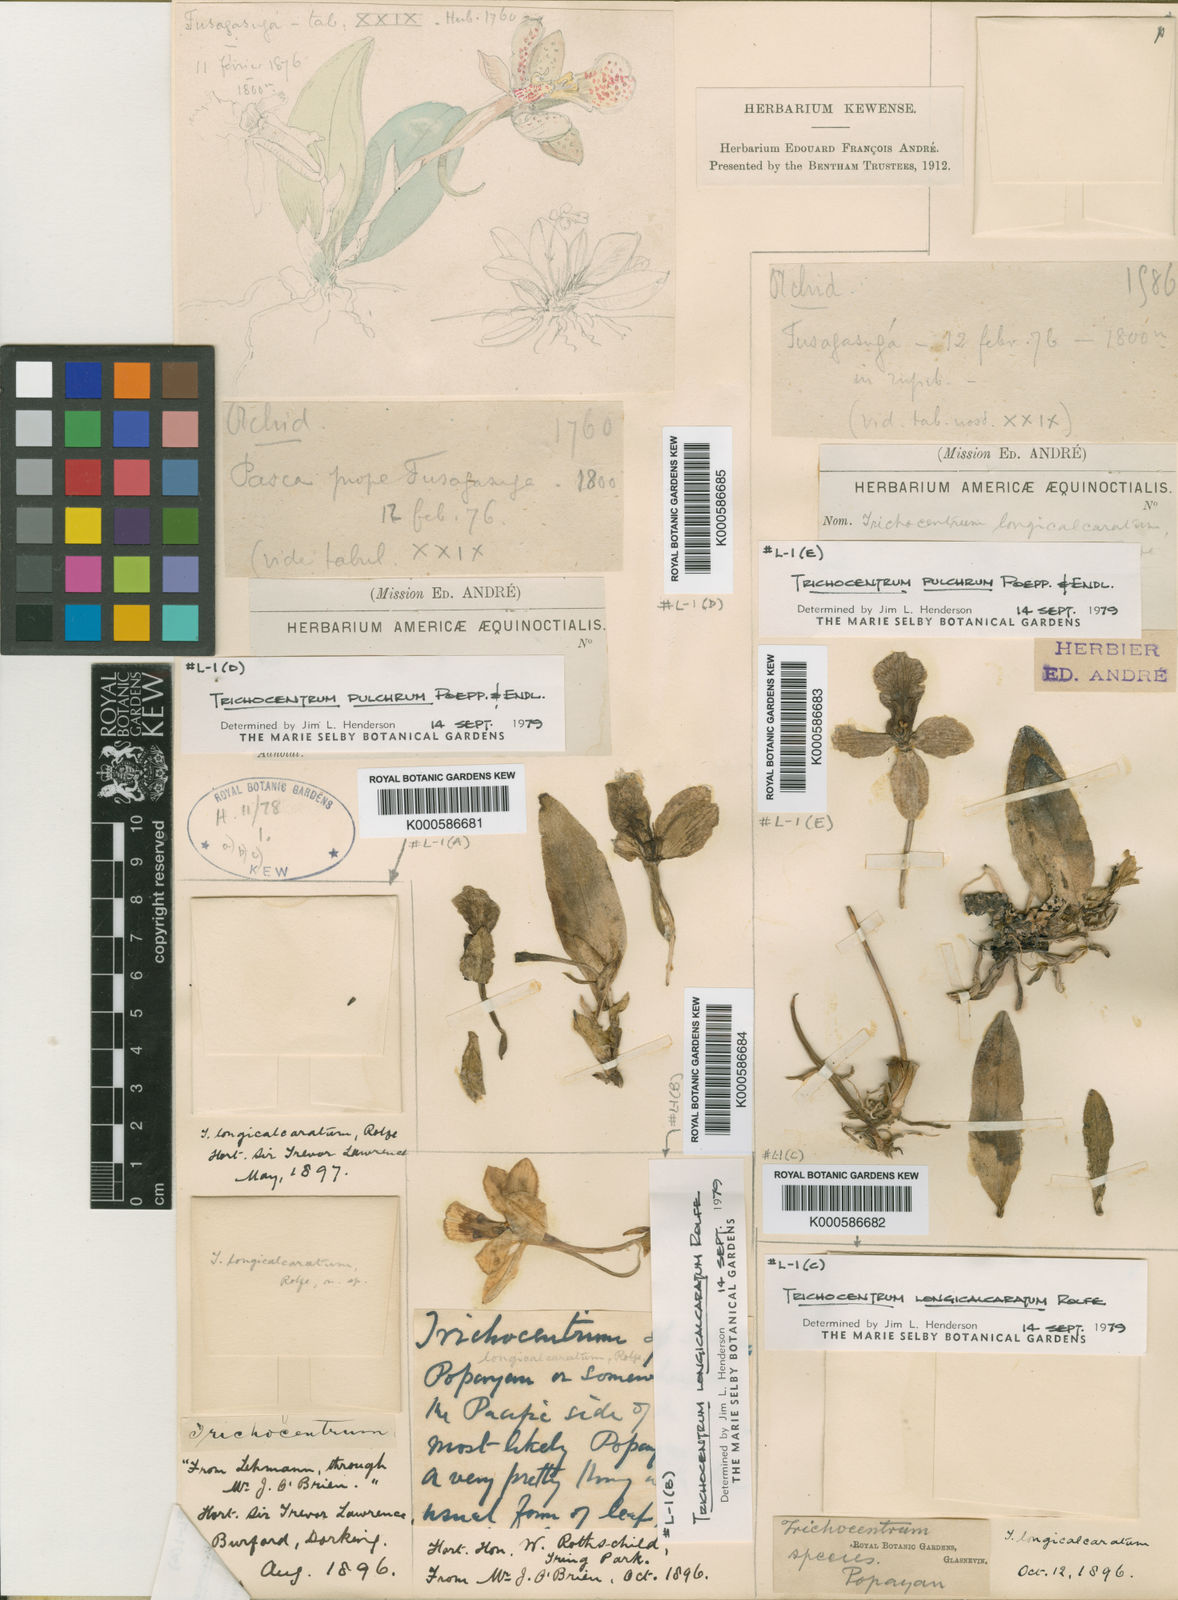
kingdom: Plantae
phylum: Tracheophyta
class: Liliopsida
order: Asparagales
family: Orchidaceae
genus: Trichocentrum
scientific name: Trichocentrum longicalcaratum
